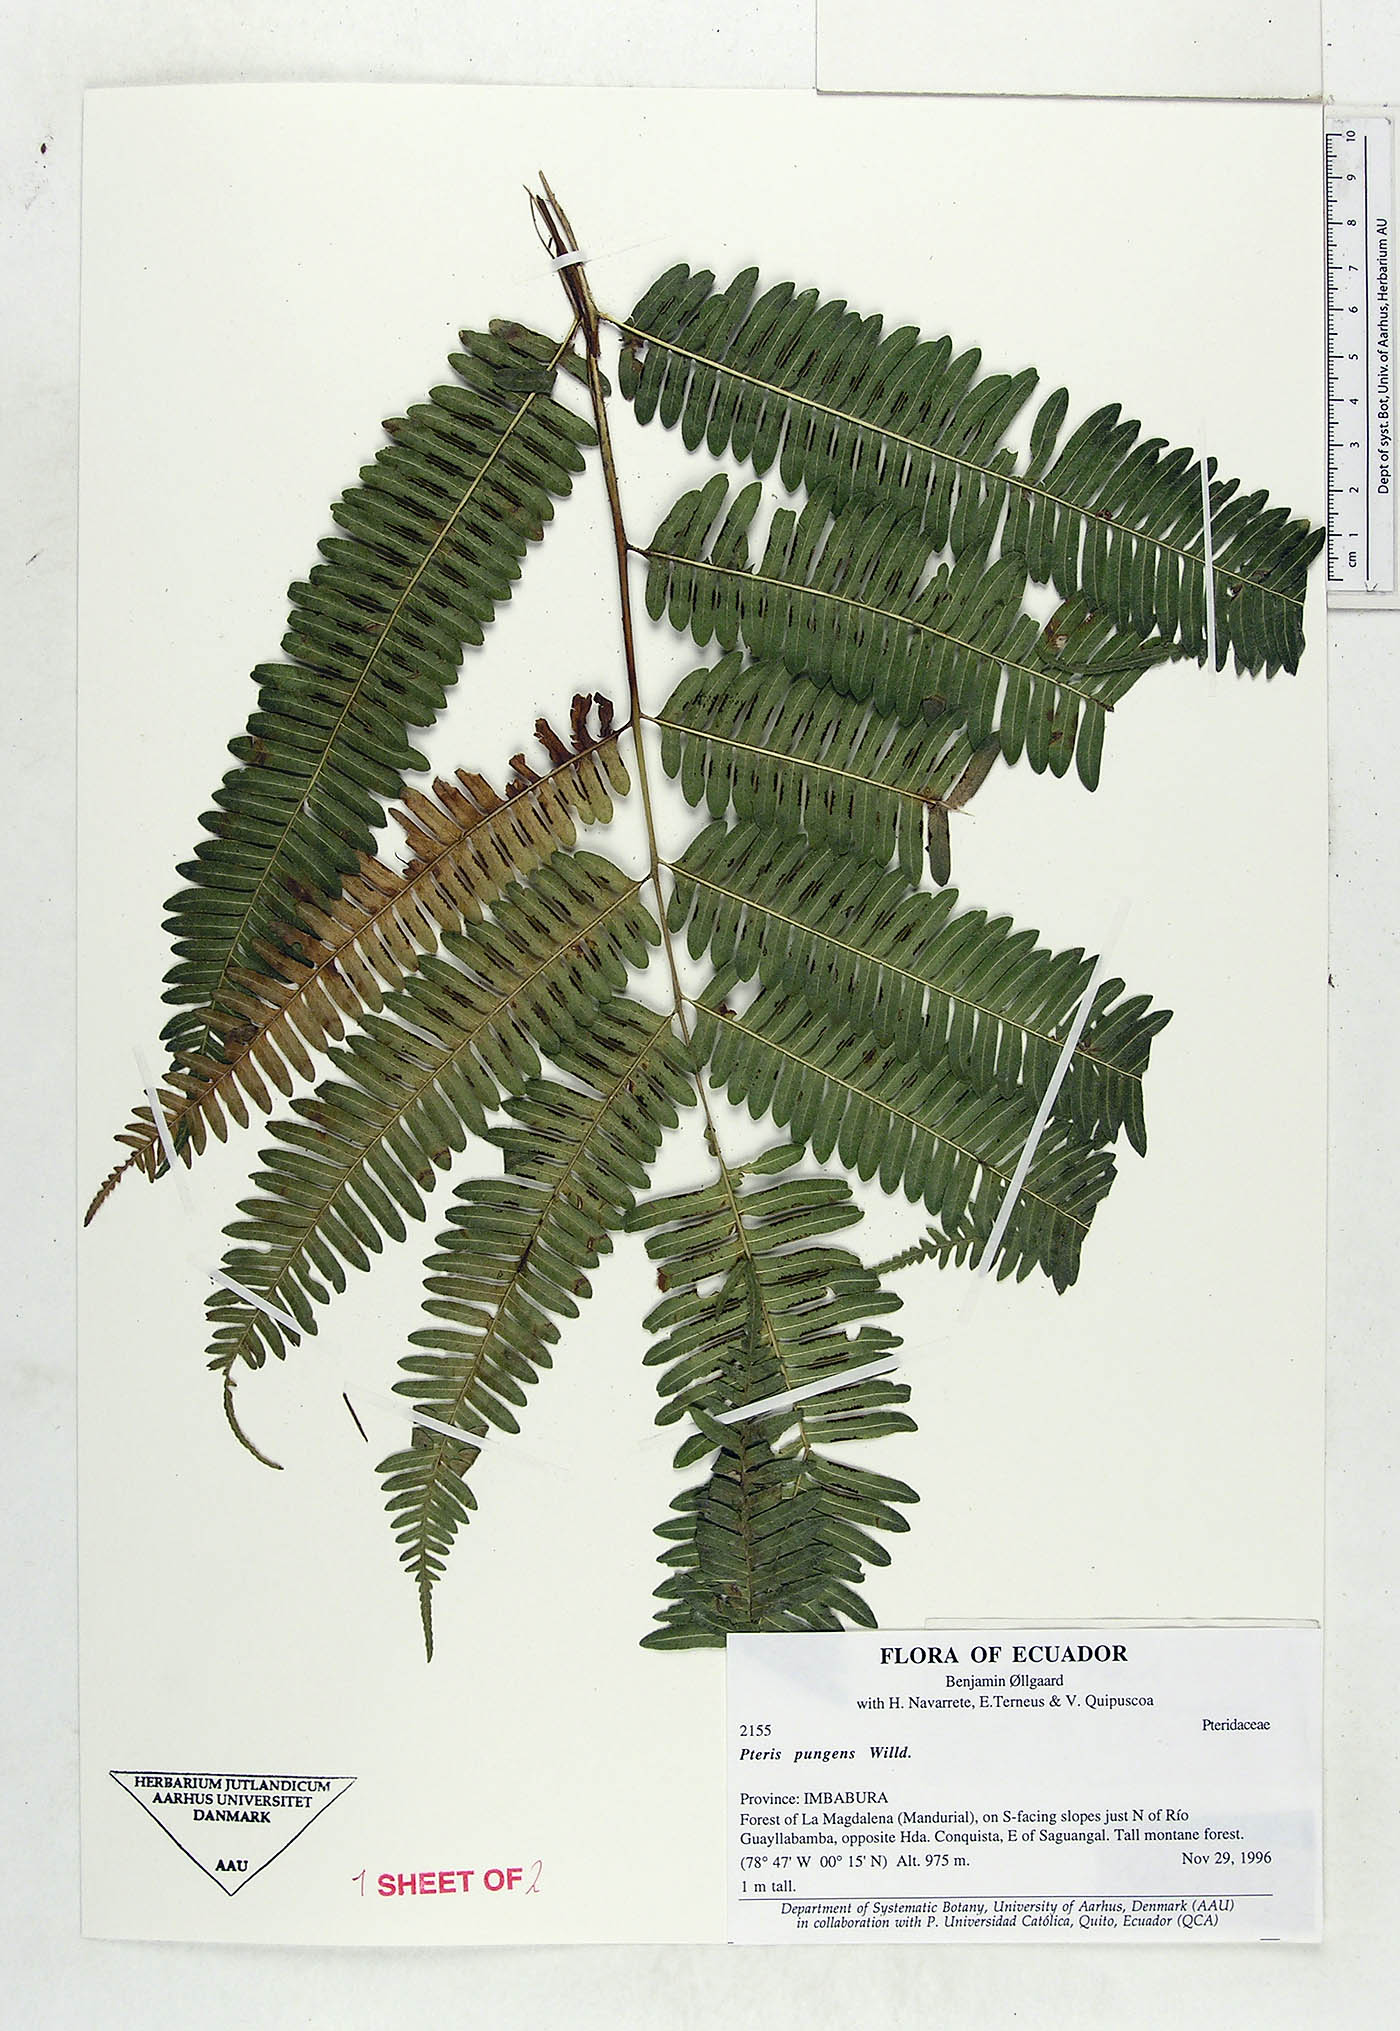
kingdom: Plantae
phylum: Tracheophyta
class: Polypodiopsida
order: Polypodiales
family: Pteridaceae
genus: Pteris
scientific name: Pteris pungens
